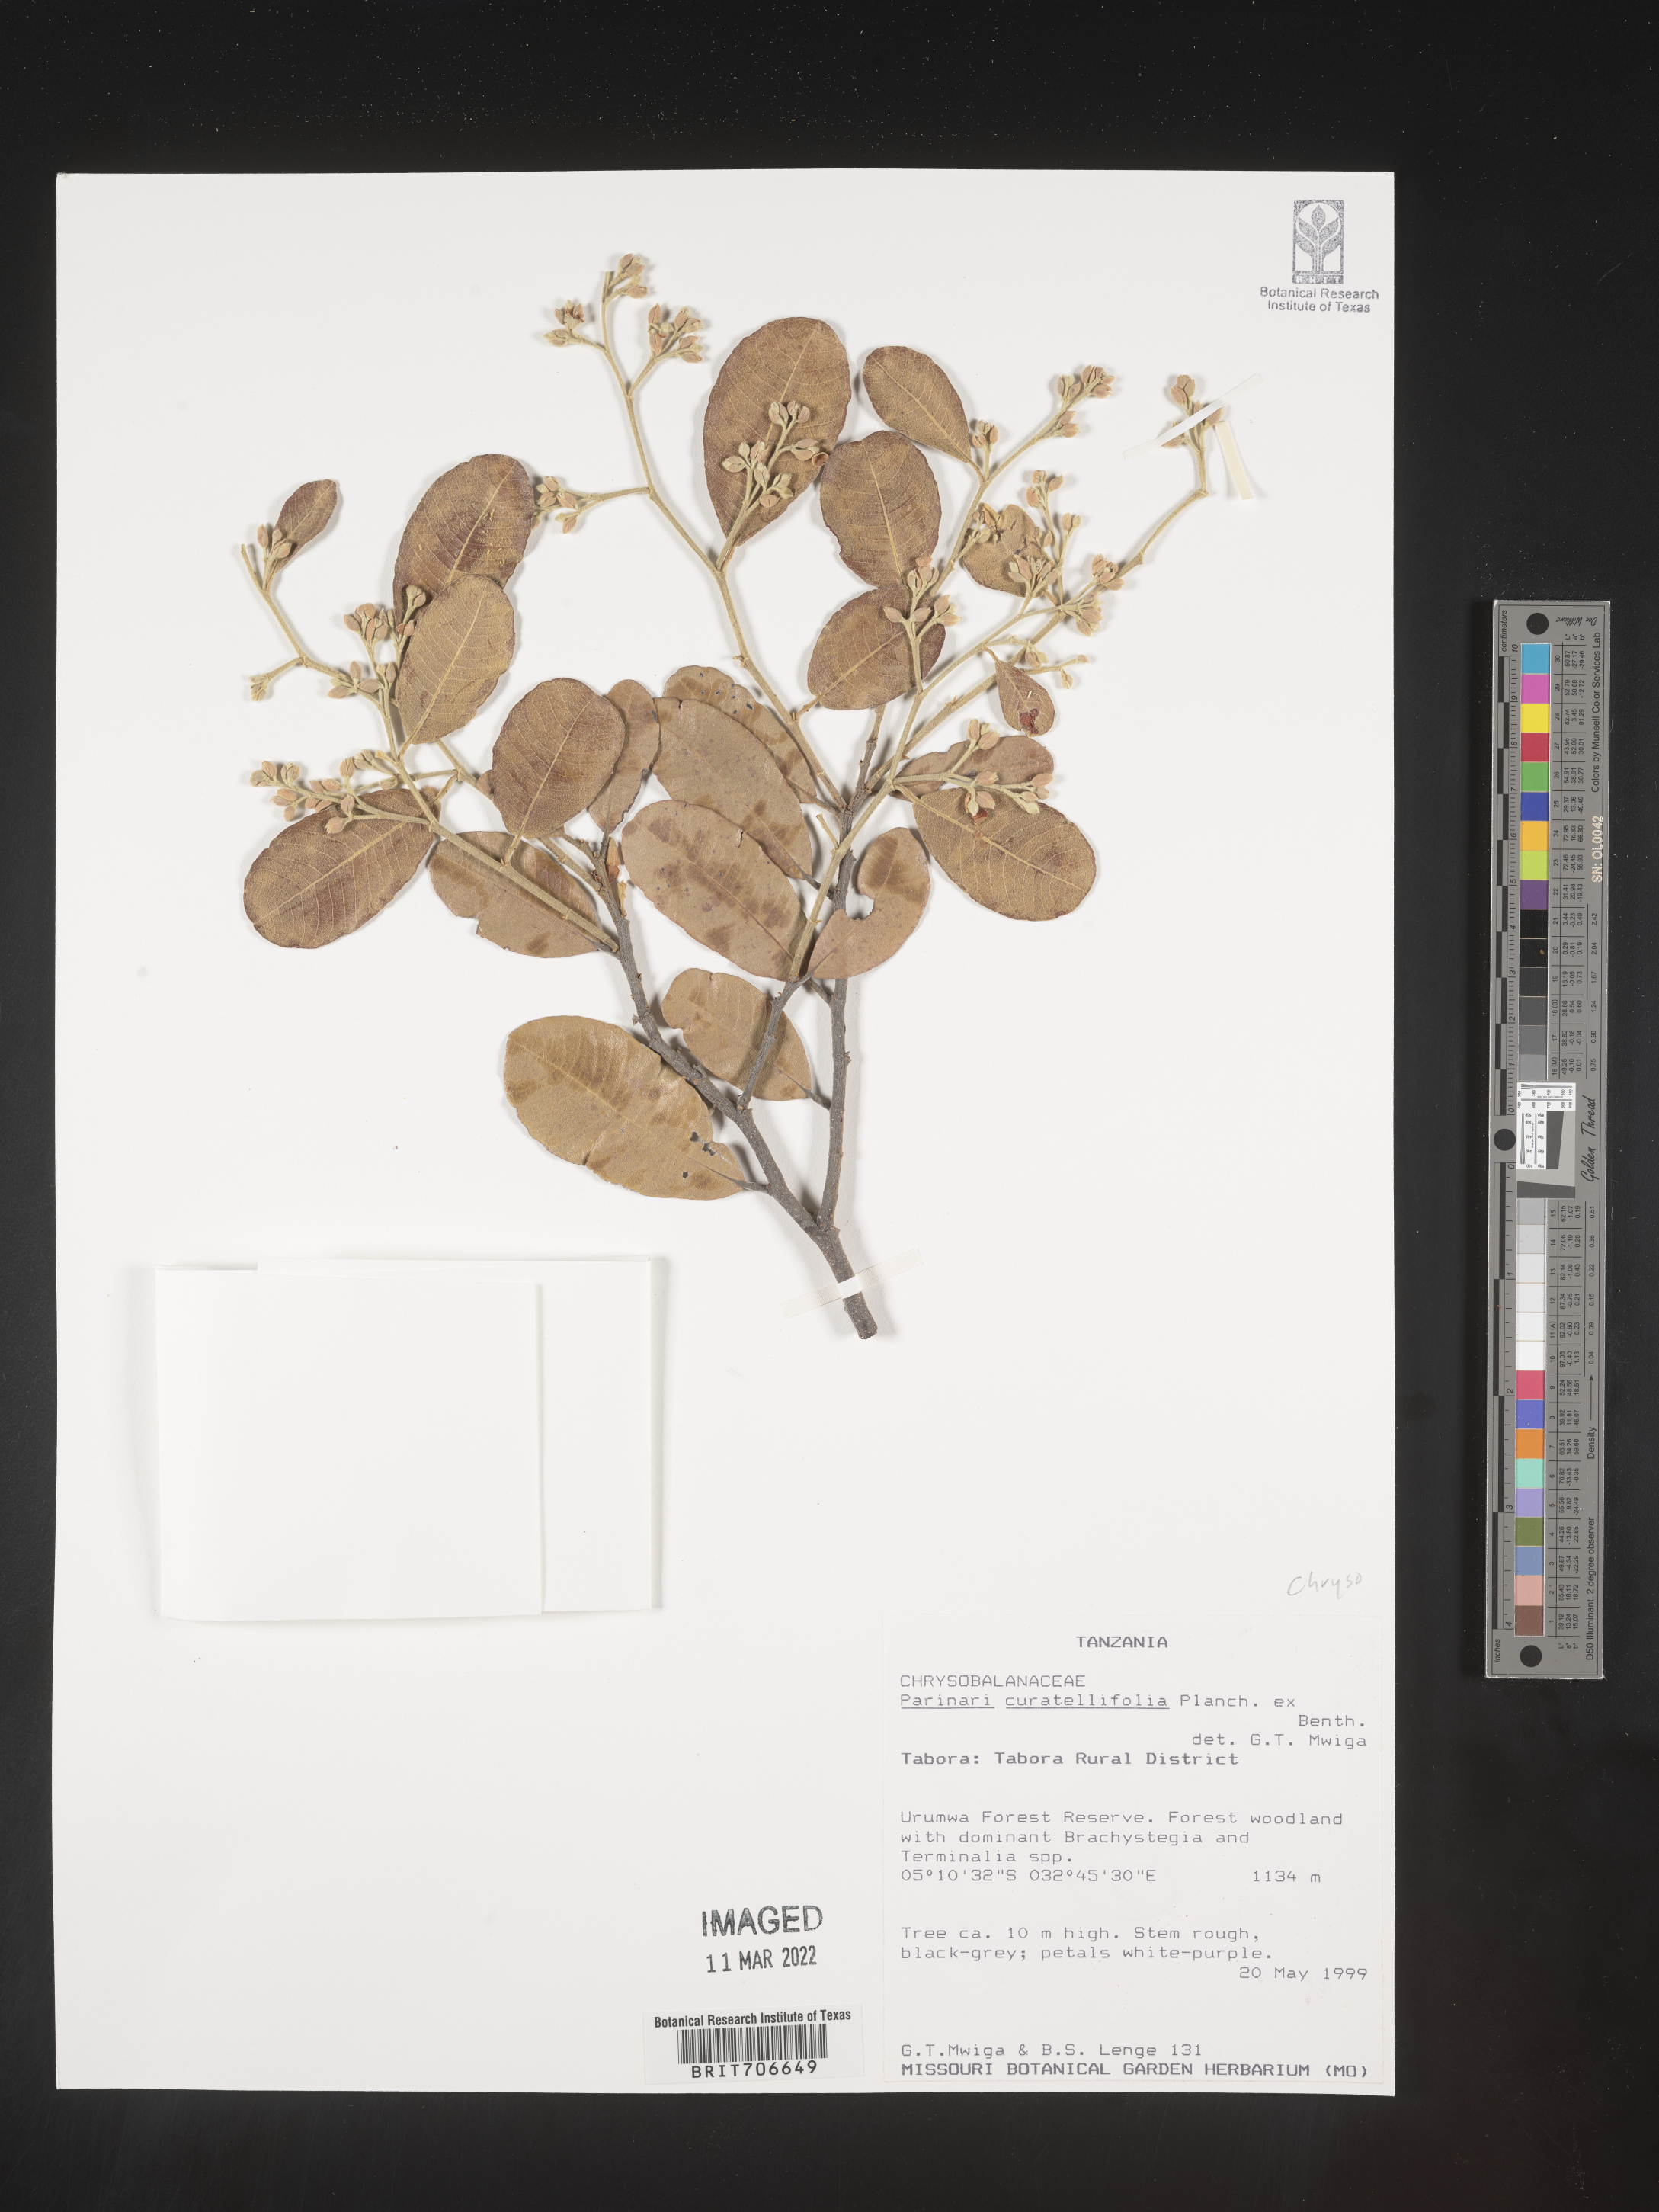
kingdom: Plantae
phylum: Tracheophyta
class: Magnoliopsida
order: Malpighiales
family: Chrysobalanaceae
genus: Parinari
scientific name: Parinari
